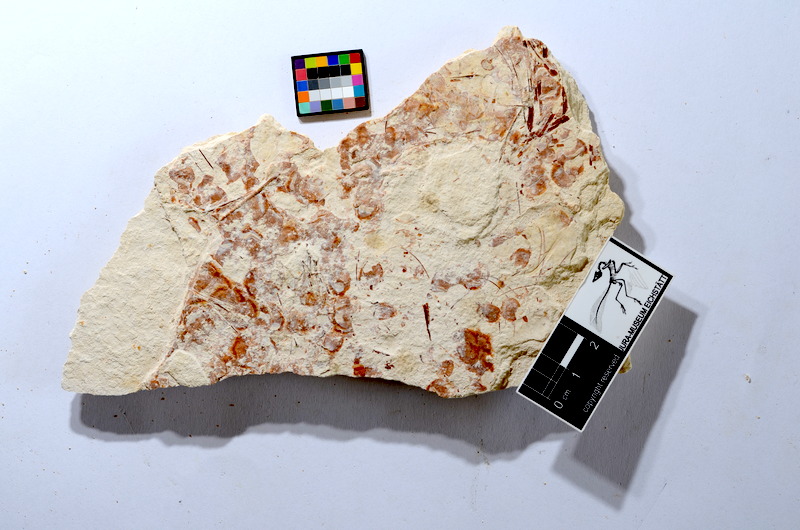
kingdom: Animalia
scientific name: Animalia
